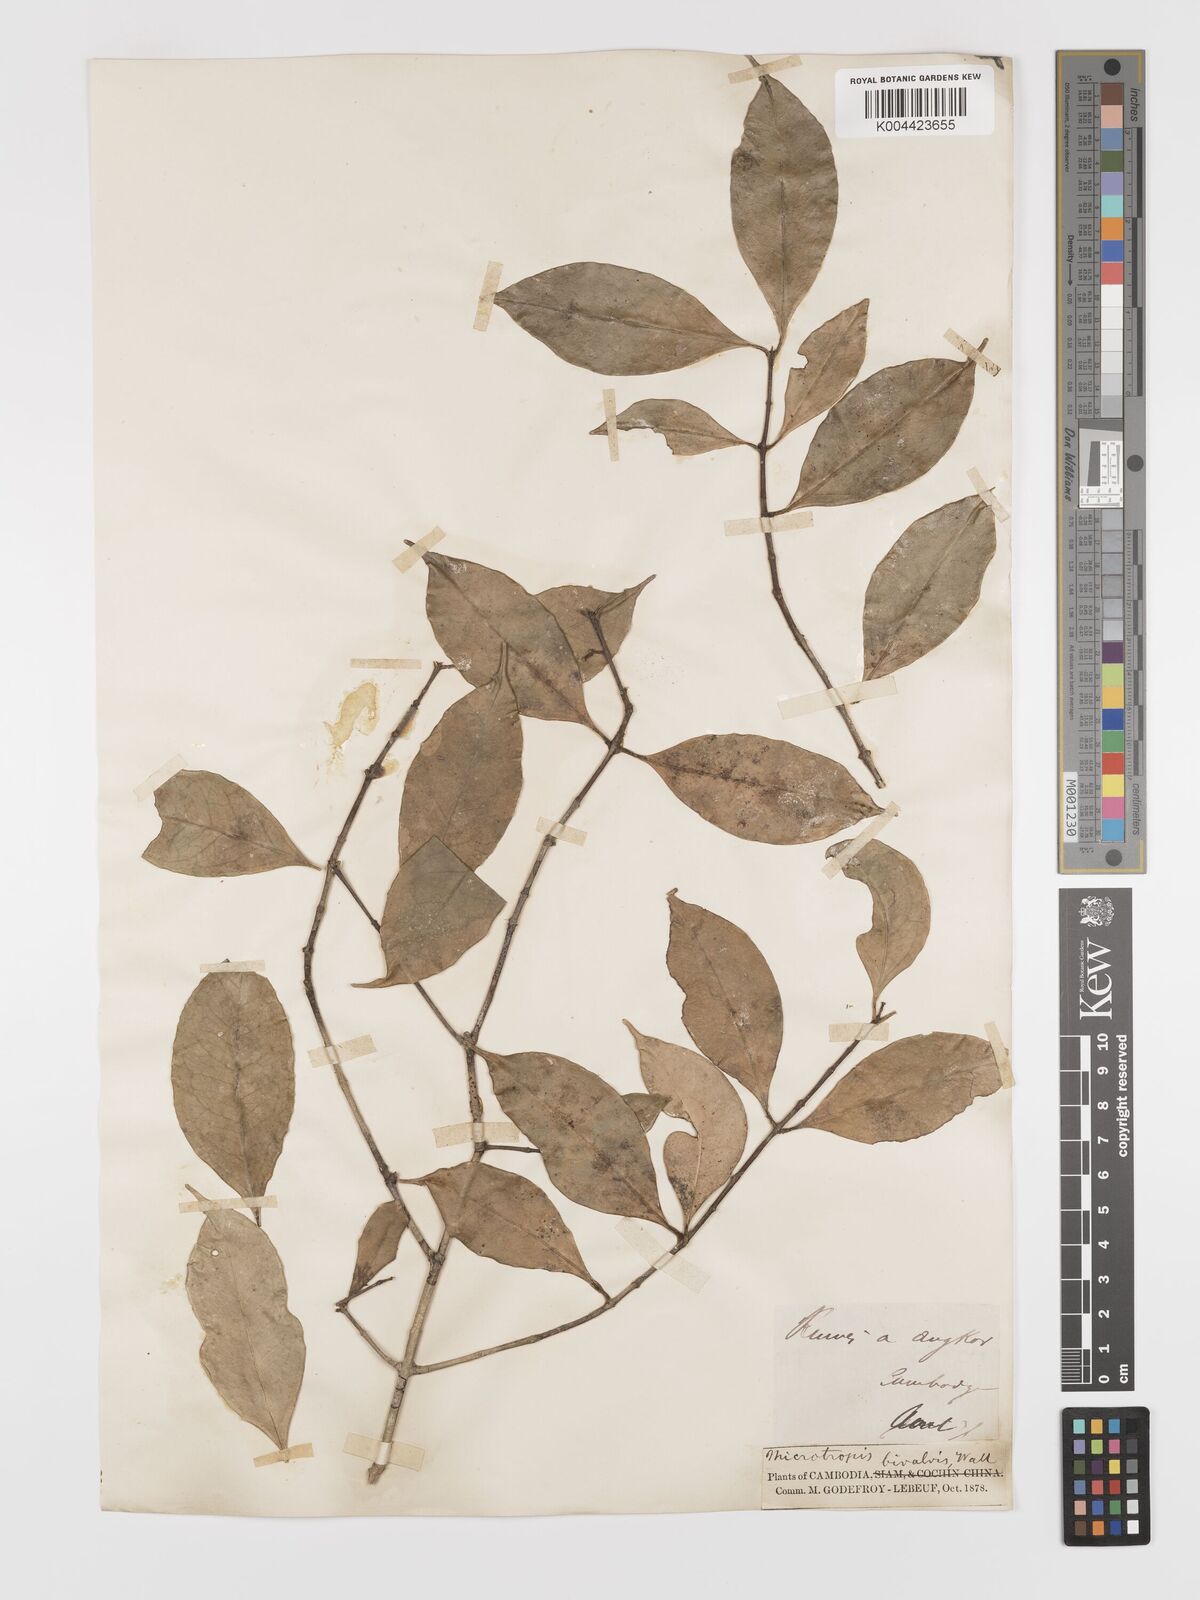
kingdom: Plantae
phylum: Tracheophyta
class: Magnoliopsida
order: Celastrales
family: Celastraceae
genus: Microtropis
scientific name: Microtropis bivalvis
